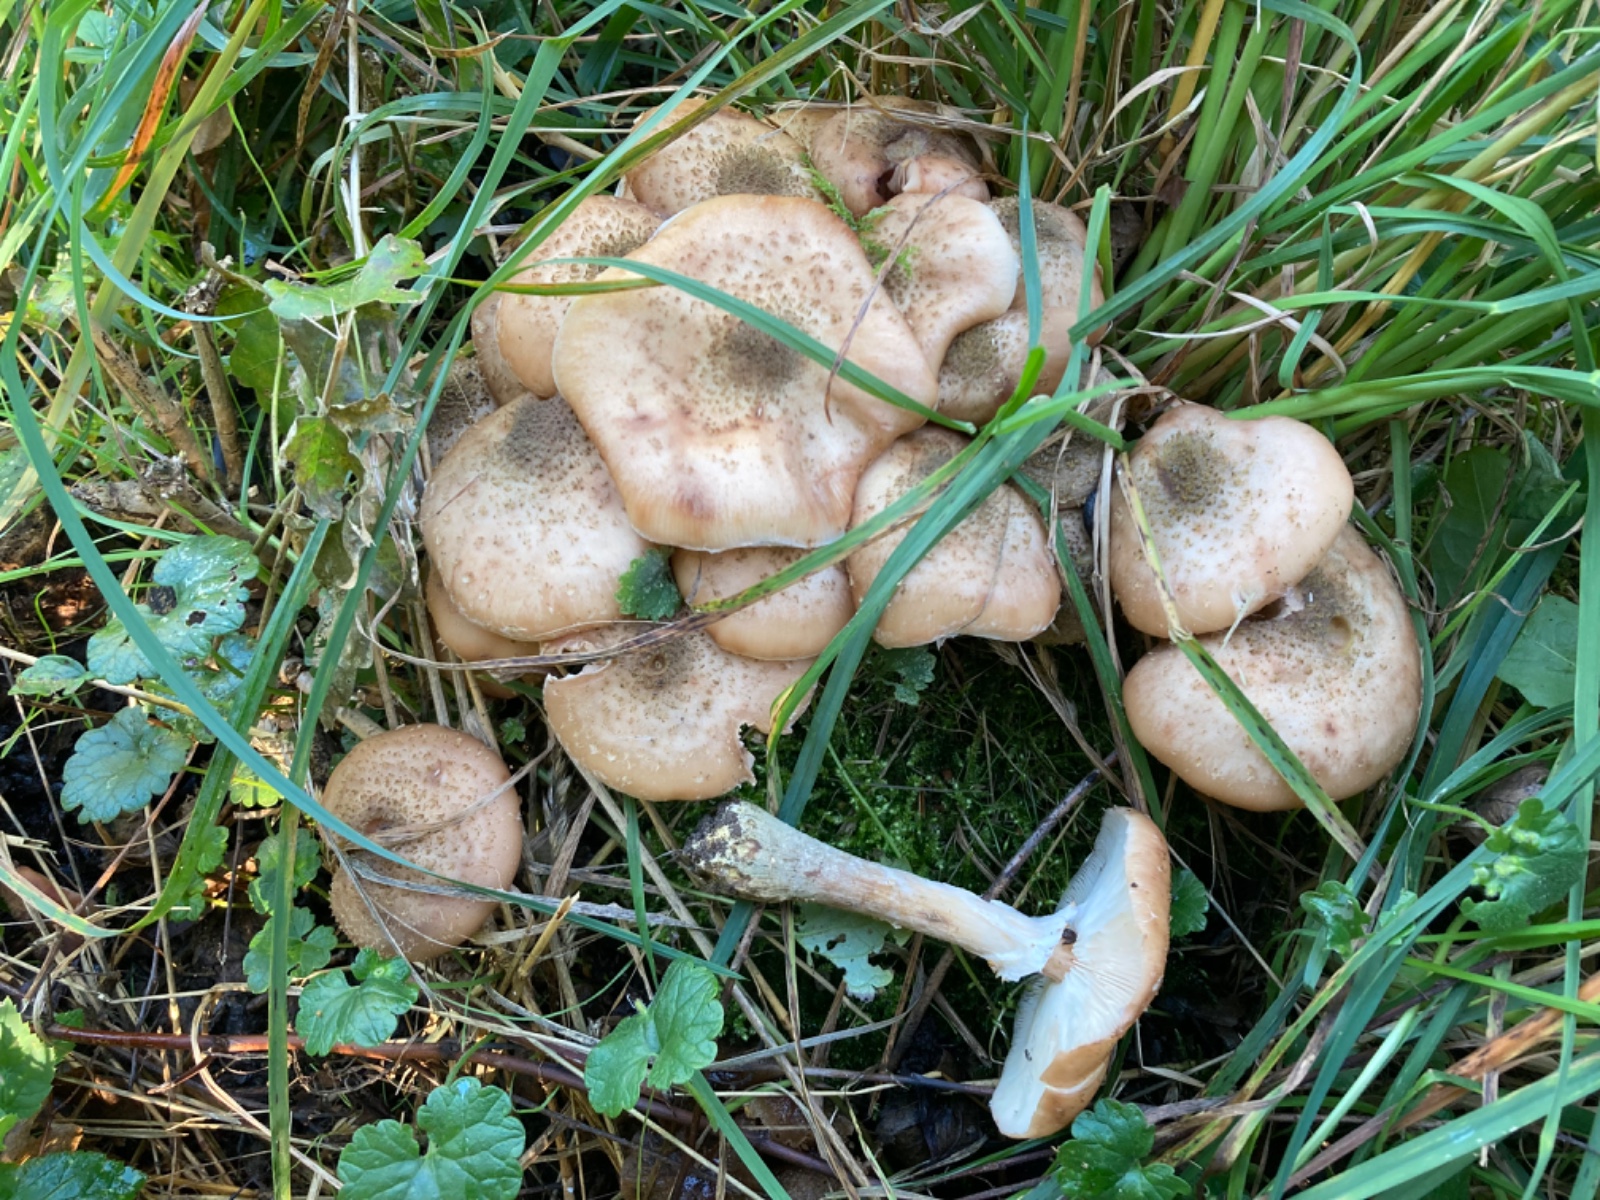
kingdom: Fungi
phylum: Basidiomycota
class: Agaricomycetes
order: Agaricales
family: Physalacriaceae
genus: Armillaria
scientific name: Armillaria lutea
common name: køllestokket honningsvamp
